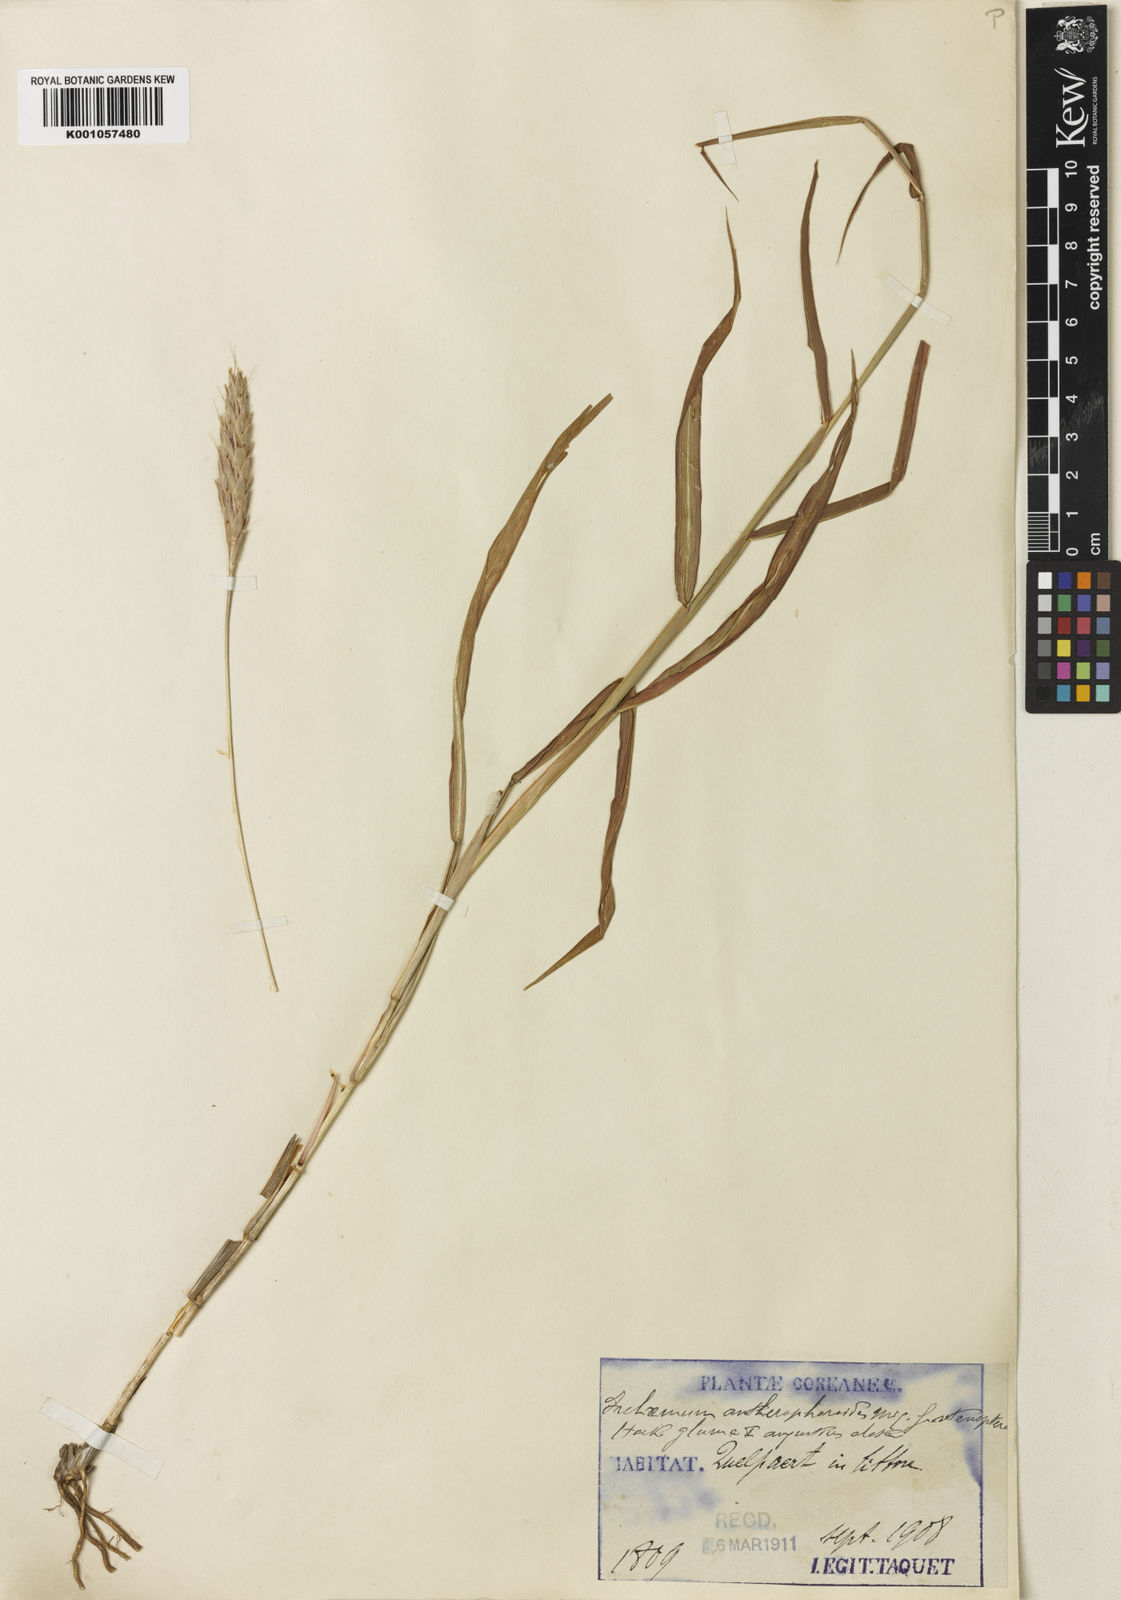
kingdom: Plantae
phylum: Tracheophyta
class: Liliopsida
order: Poales
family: Poaceae
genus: Ischaemum
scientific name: Ischaemum anthephoroides
